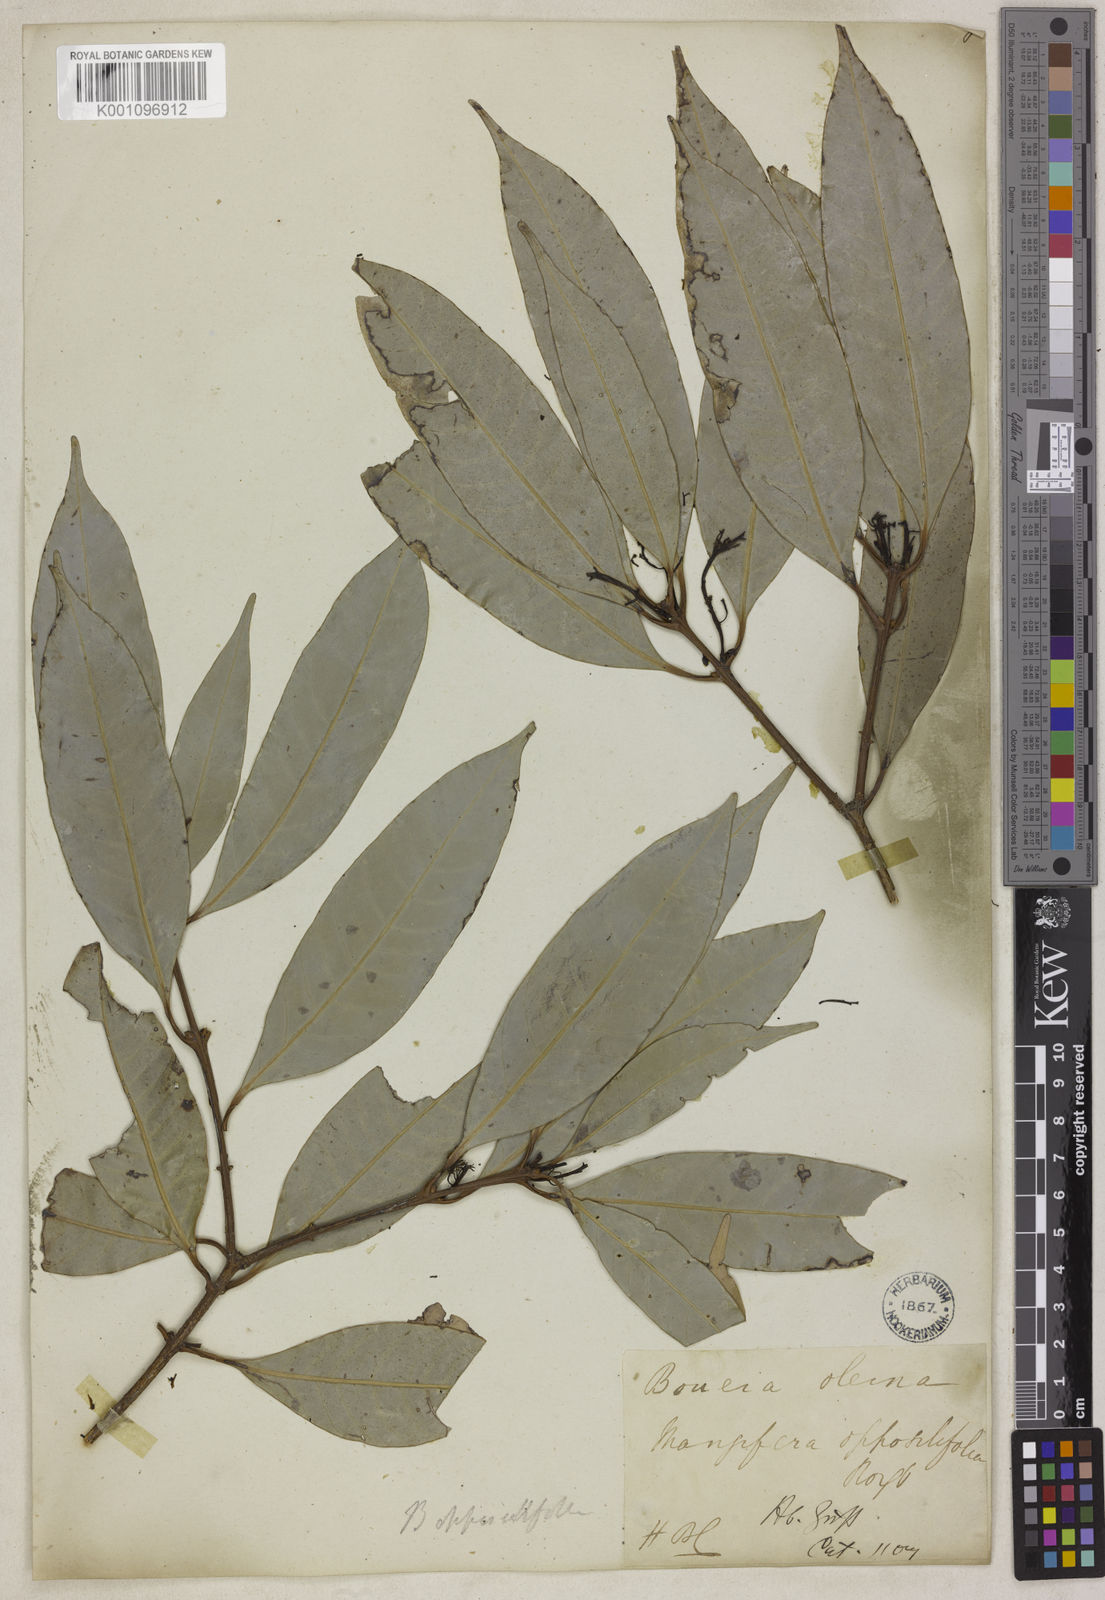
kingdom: Plantae
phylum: Tracheophyta
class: Magnoliopsida
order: Sapindales
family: Anacardiaceae
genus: Bouea
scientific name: Bouea oppositifolia
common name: Narrow-leaved kundang
